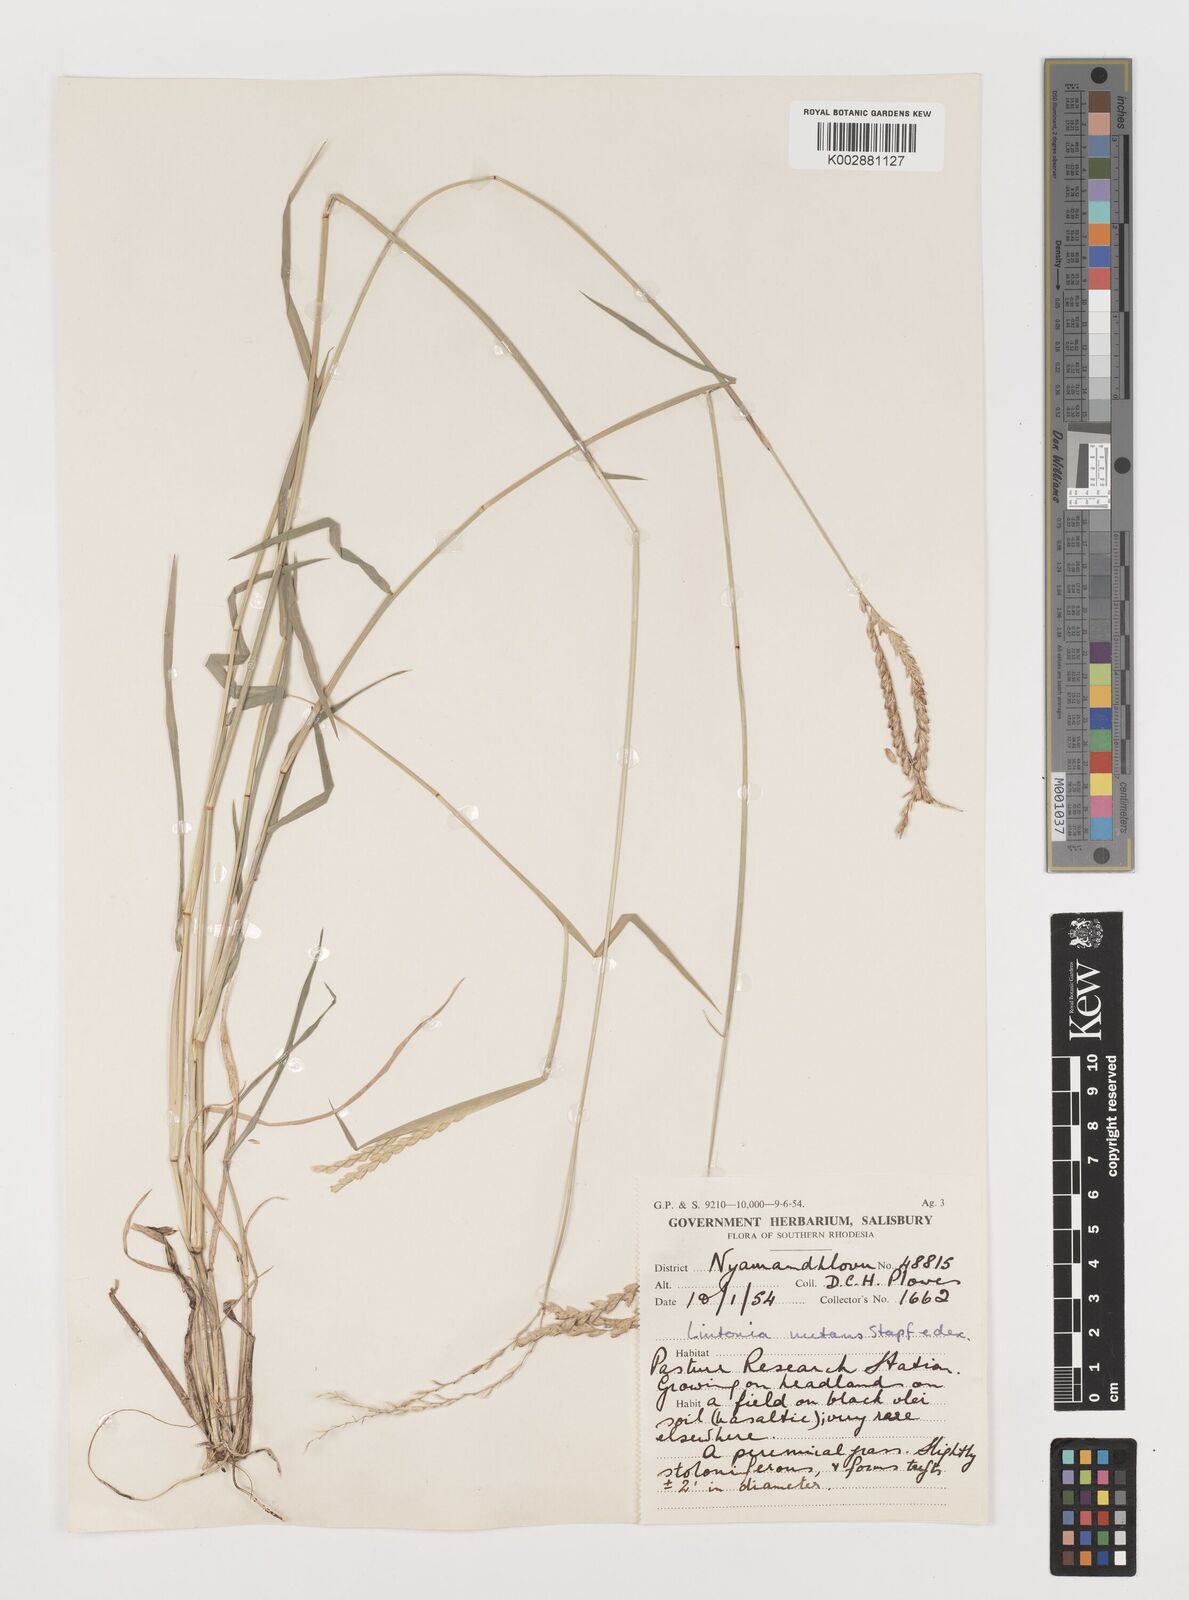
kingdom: Plantae
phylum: Tracheophyta
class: Liliopsida
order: Poales
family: Poaceae
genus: Chloris
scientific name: Chloris nutans
